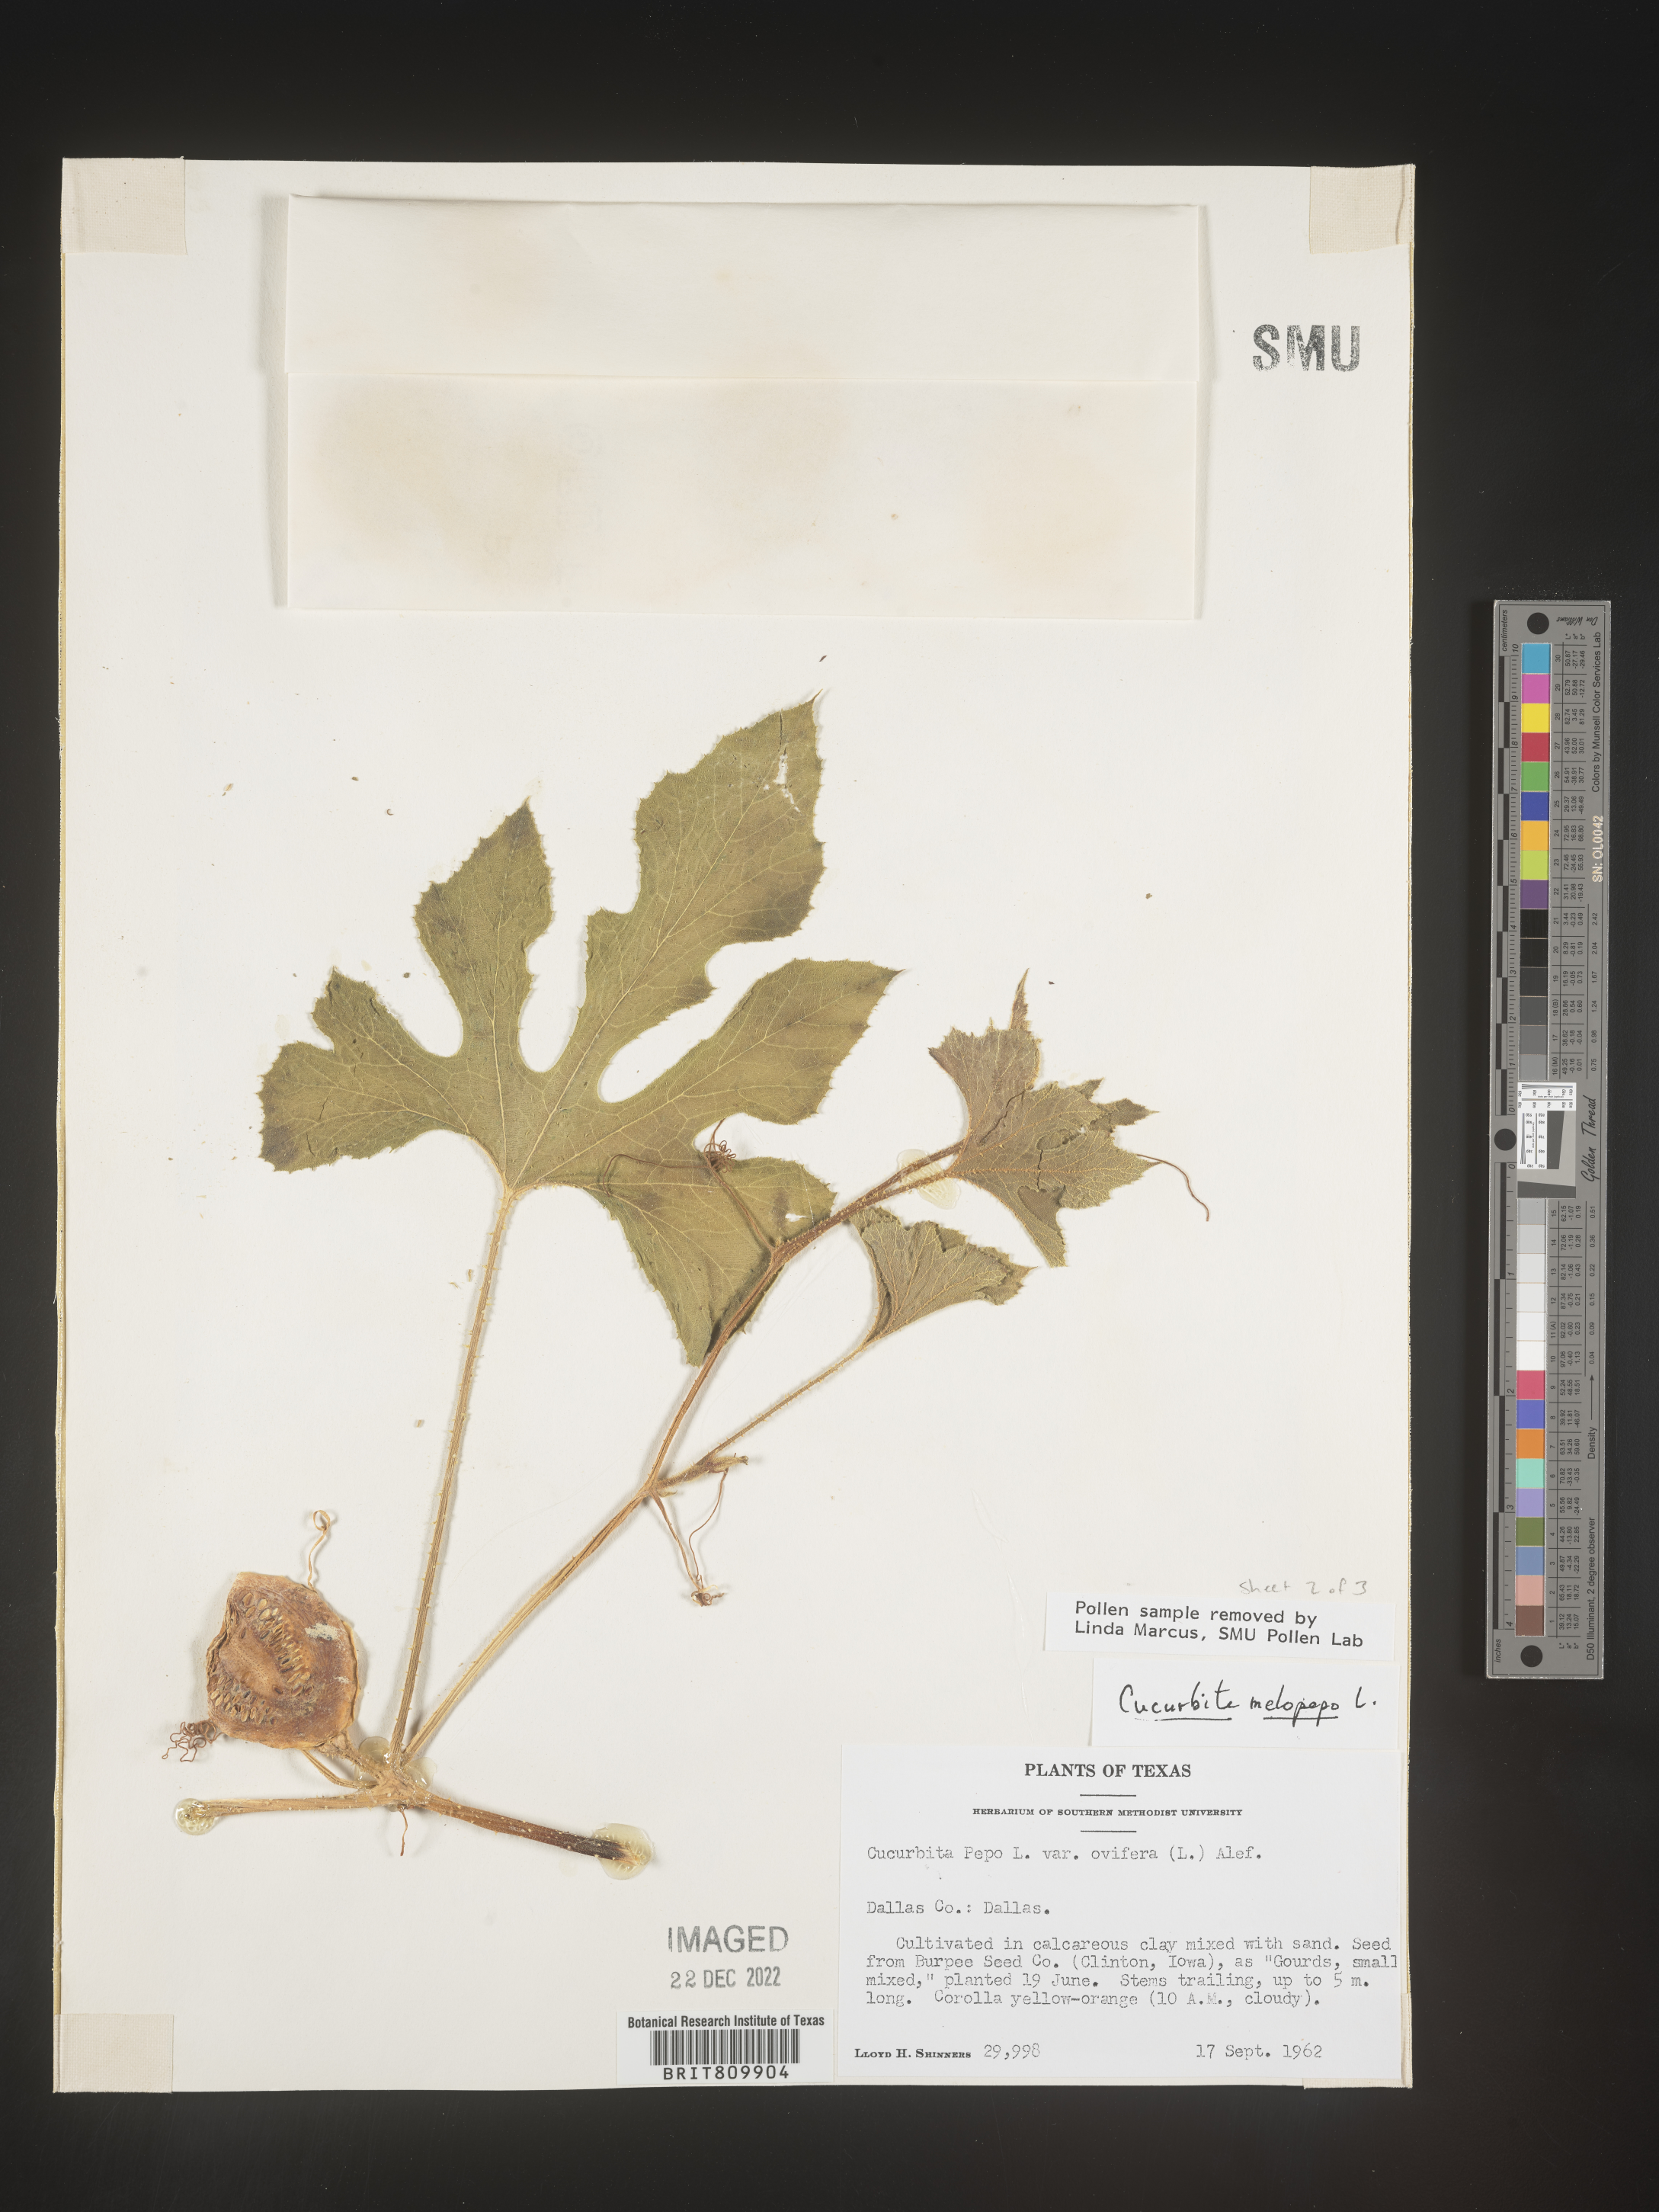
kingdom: Plantae
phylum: Tracheophyta
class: Magnoliopsida
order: Cucurbitales
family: Cucurbitaceae
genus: Cucurbita
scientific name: Cucurbita
